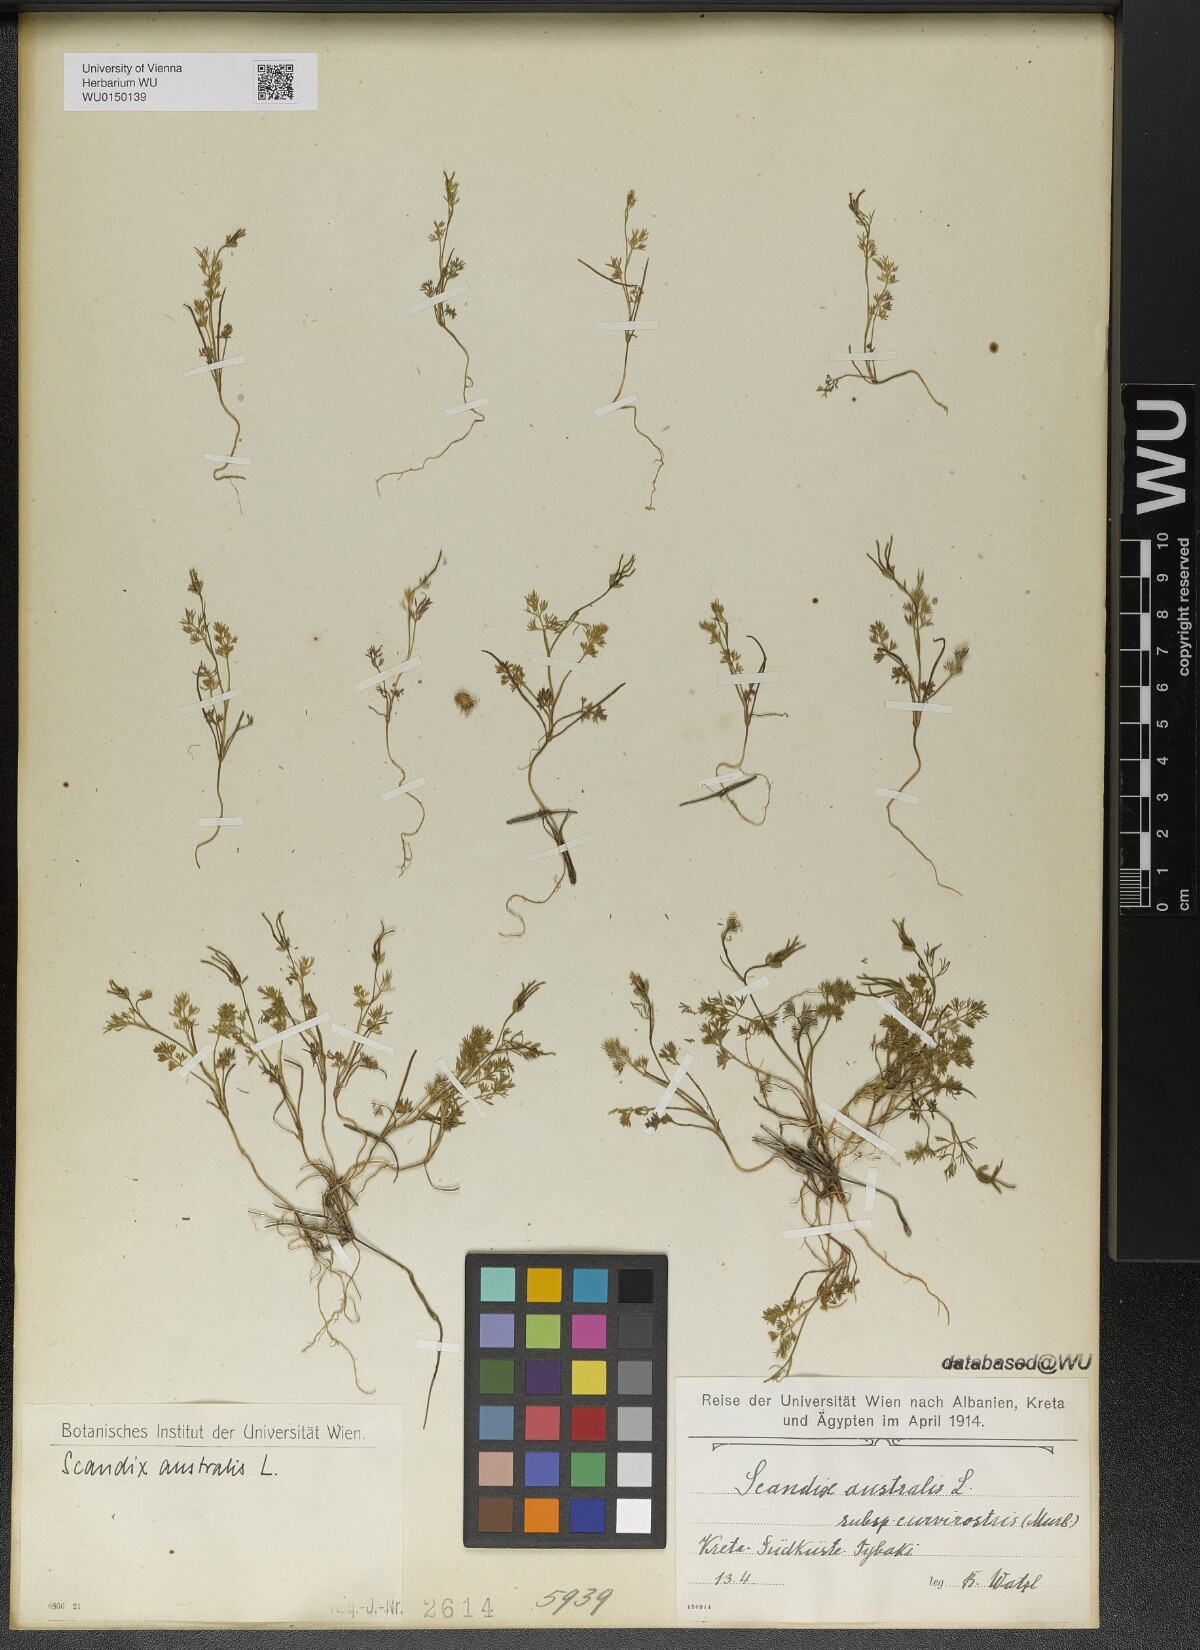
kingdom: Plantae
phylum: Tracheophyta
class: Magnoliopsida
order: Apiales
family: Apiaceae
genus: Scandix
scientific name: Scandix australis
